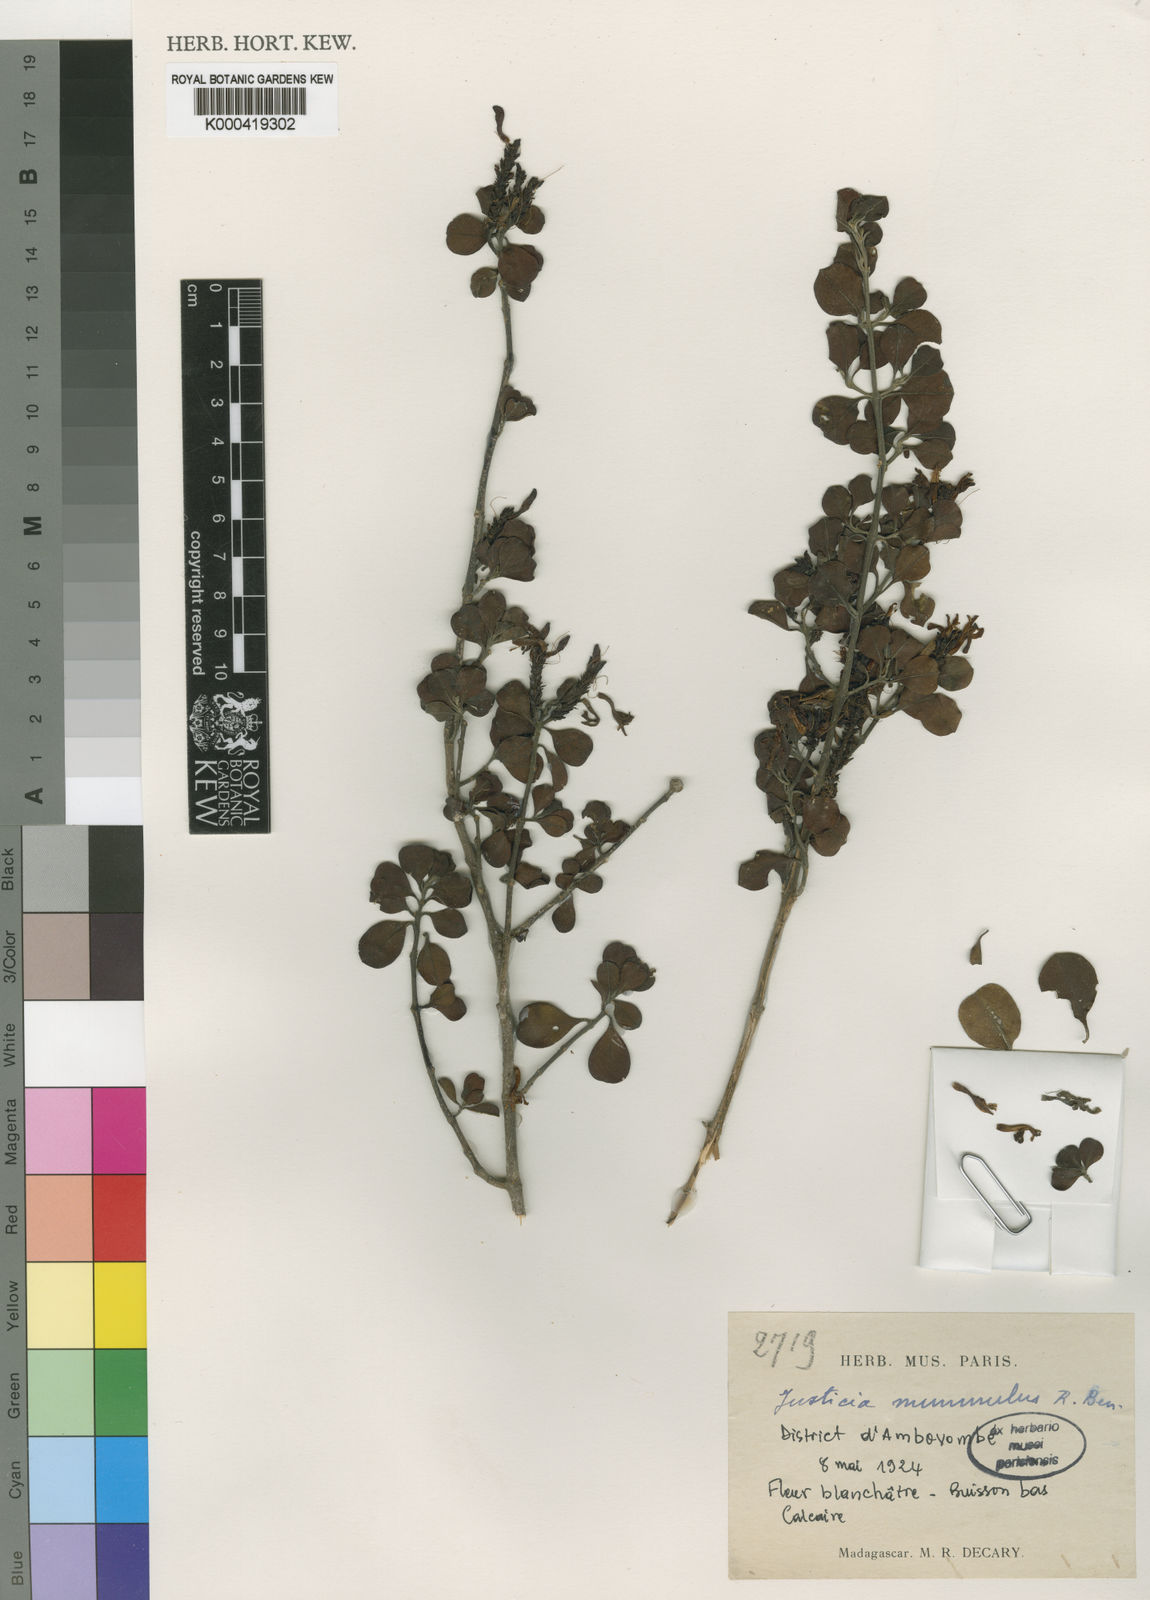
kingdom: Plantae
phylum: Tracheophyta
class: Magnoliopsida
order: Lamiales
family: Acanthaceae
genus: Justicia
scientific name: Justicia nummulus
